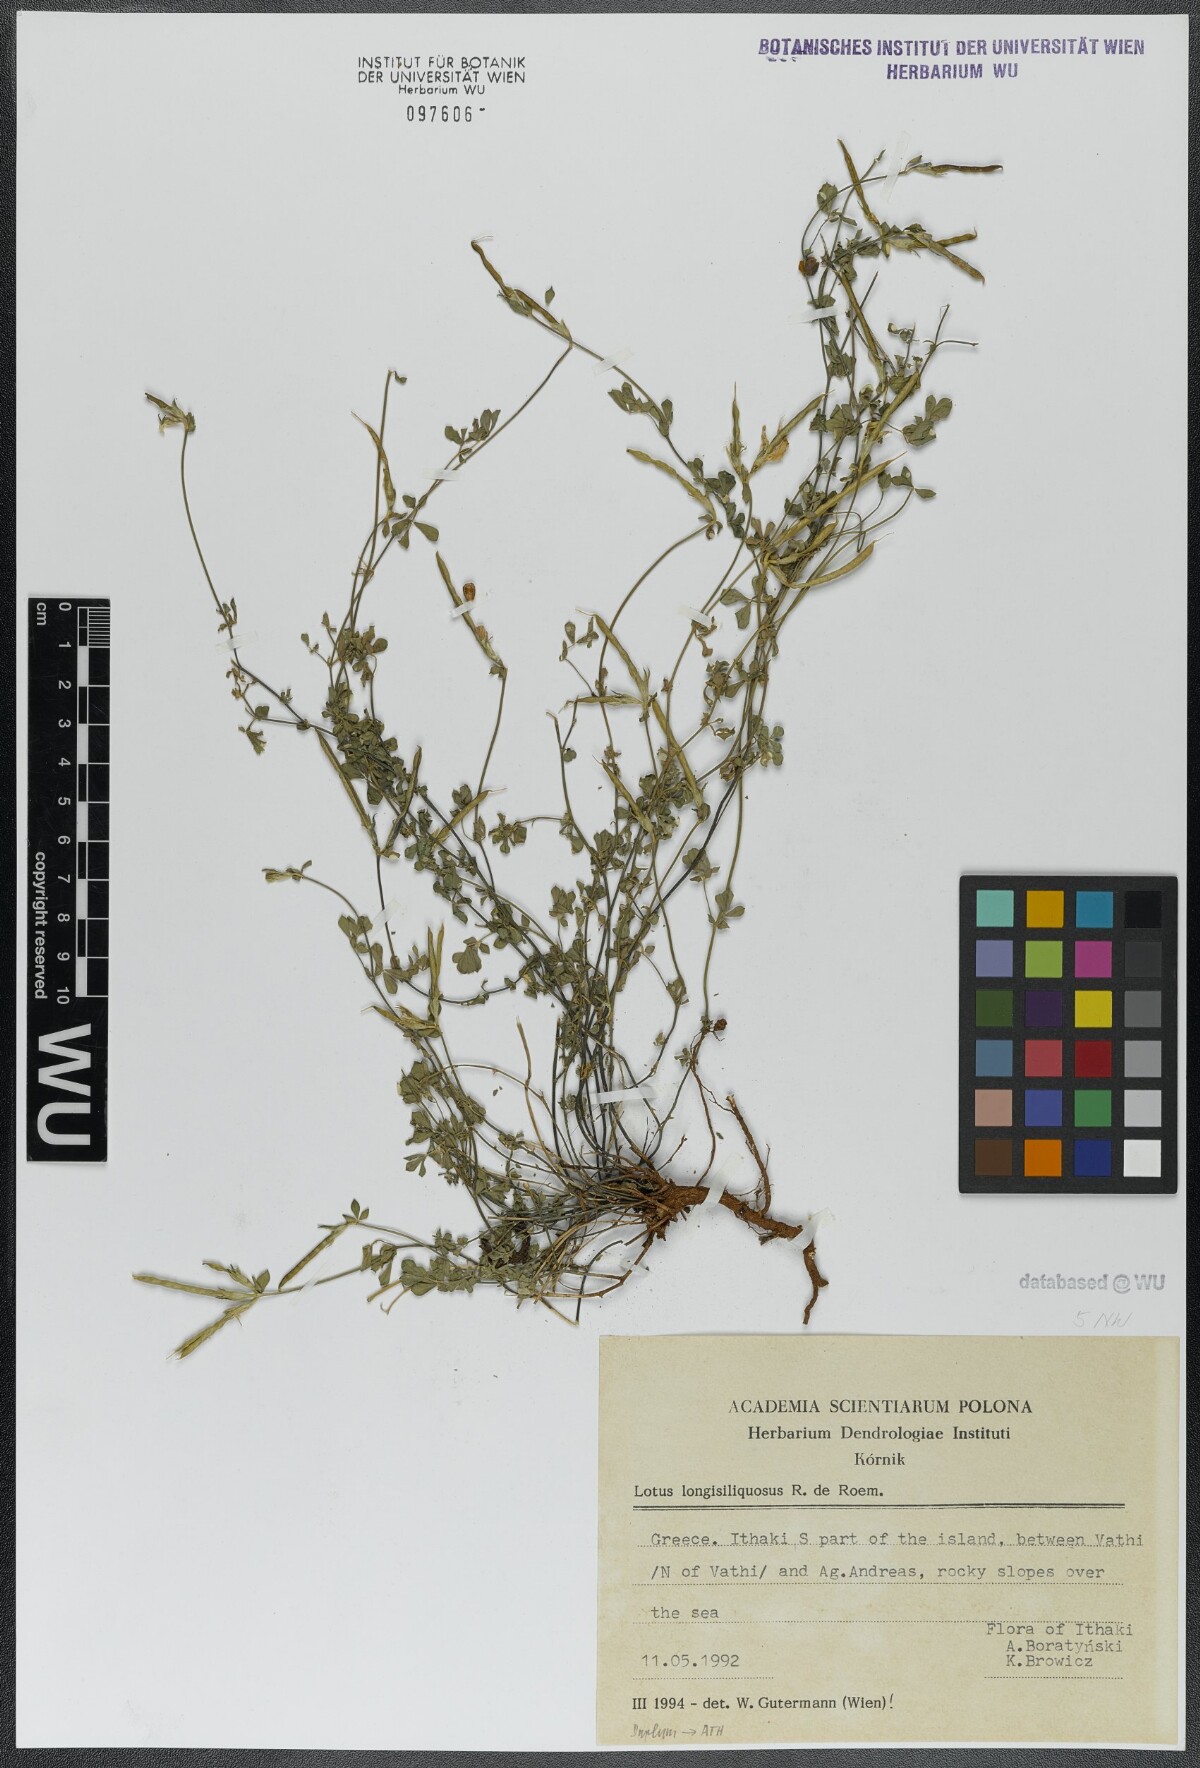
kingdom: Plantae
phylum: Tracheophyta
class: Magnoliopsida
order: Fabales
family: Fabaceae
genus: Lotus
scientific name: Lotus longisiliquosus
